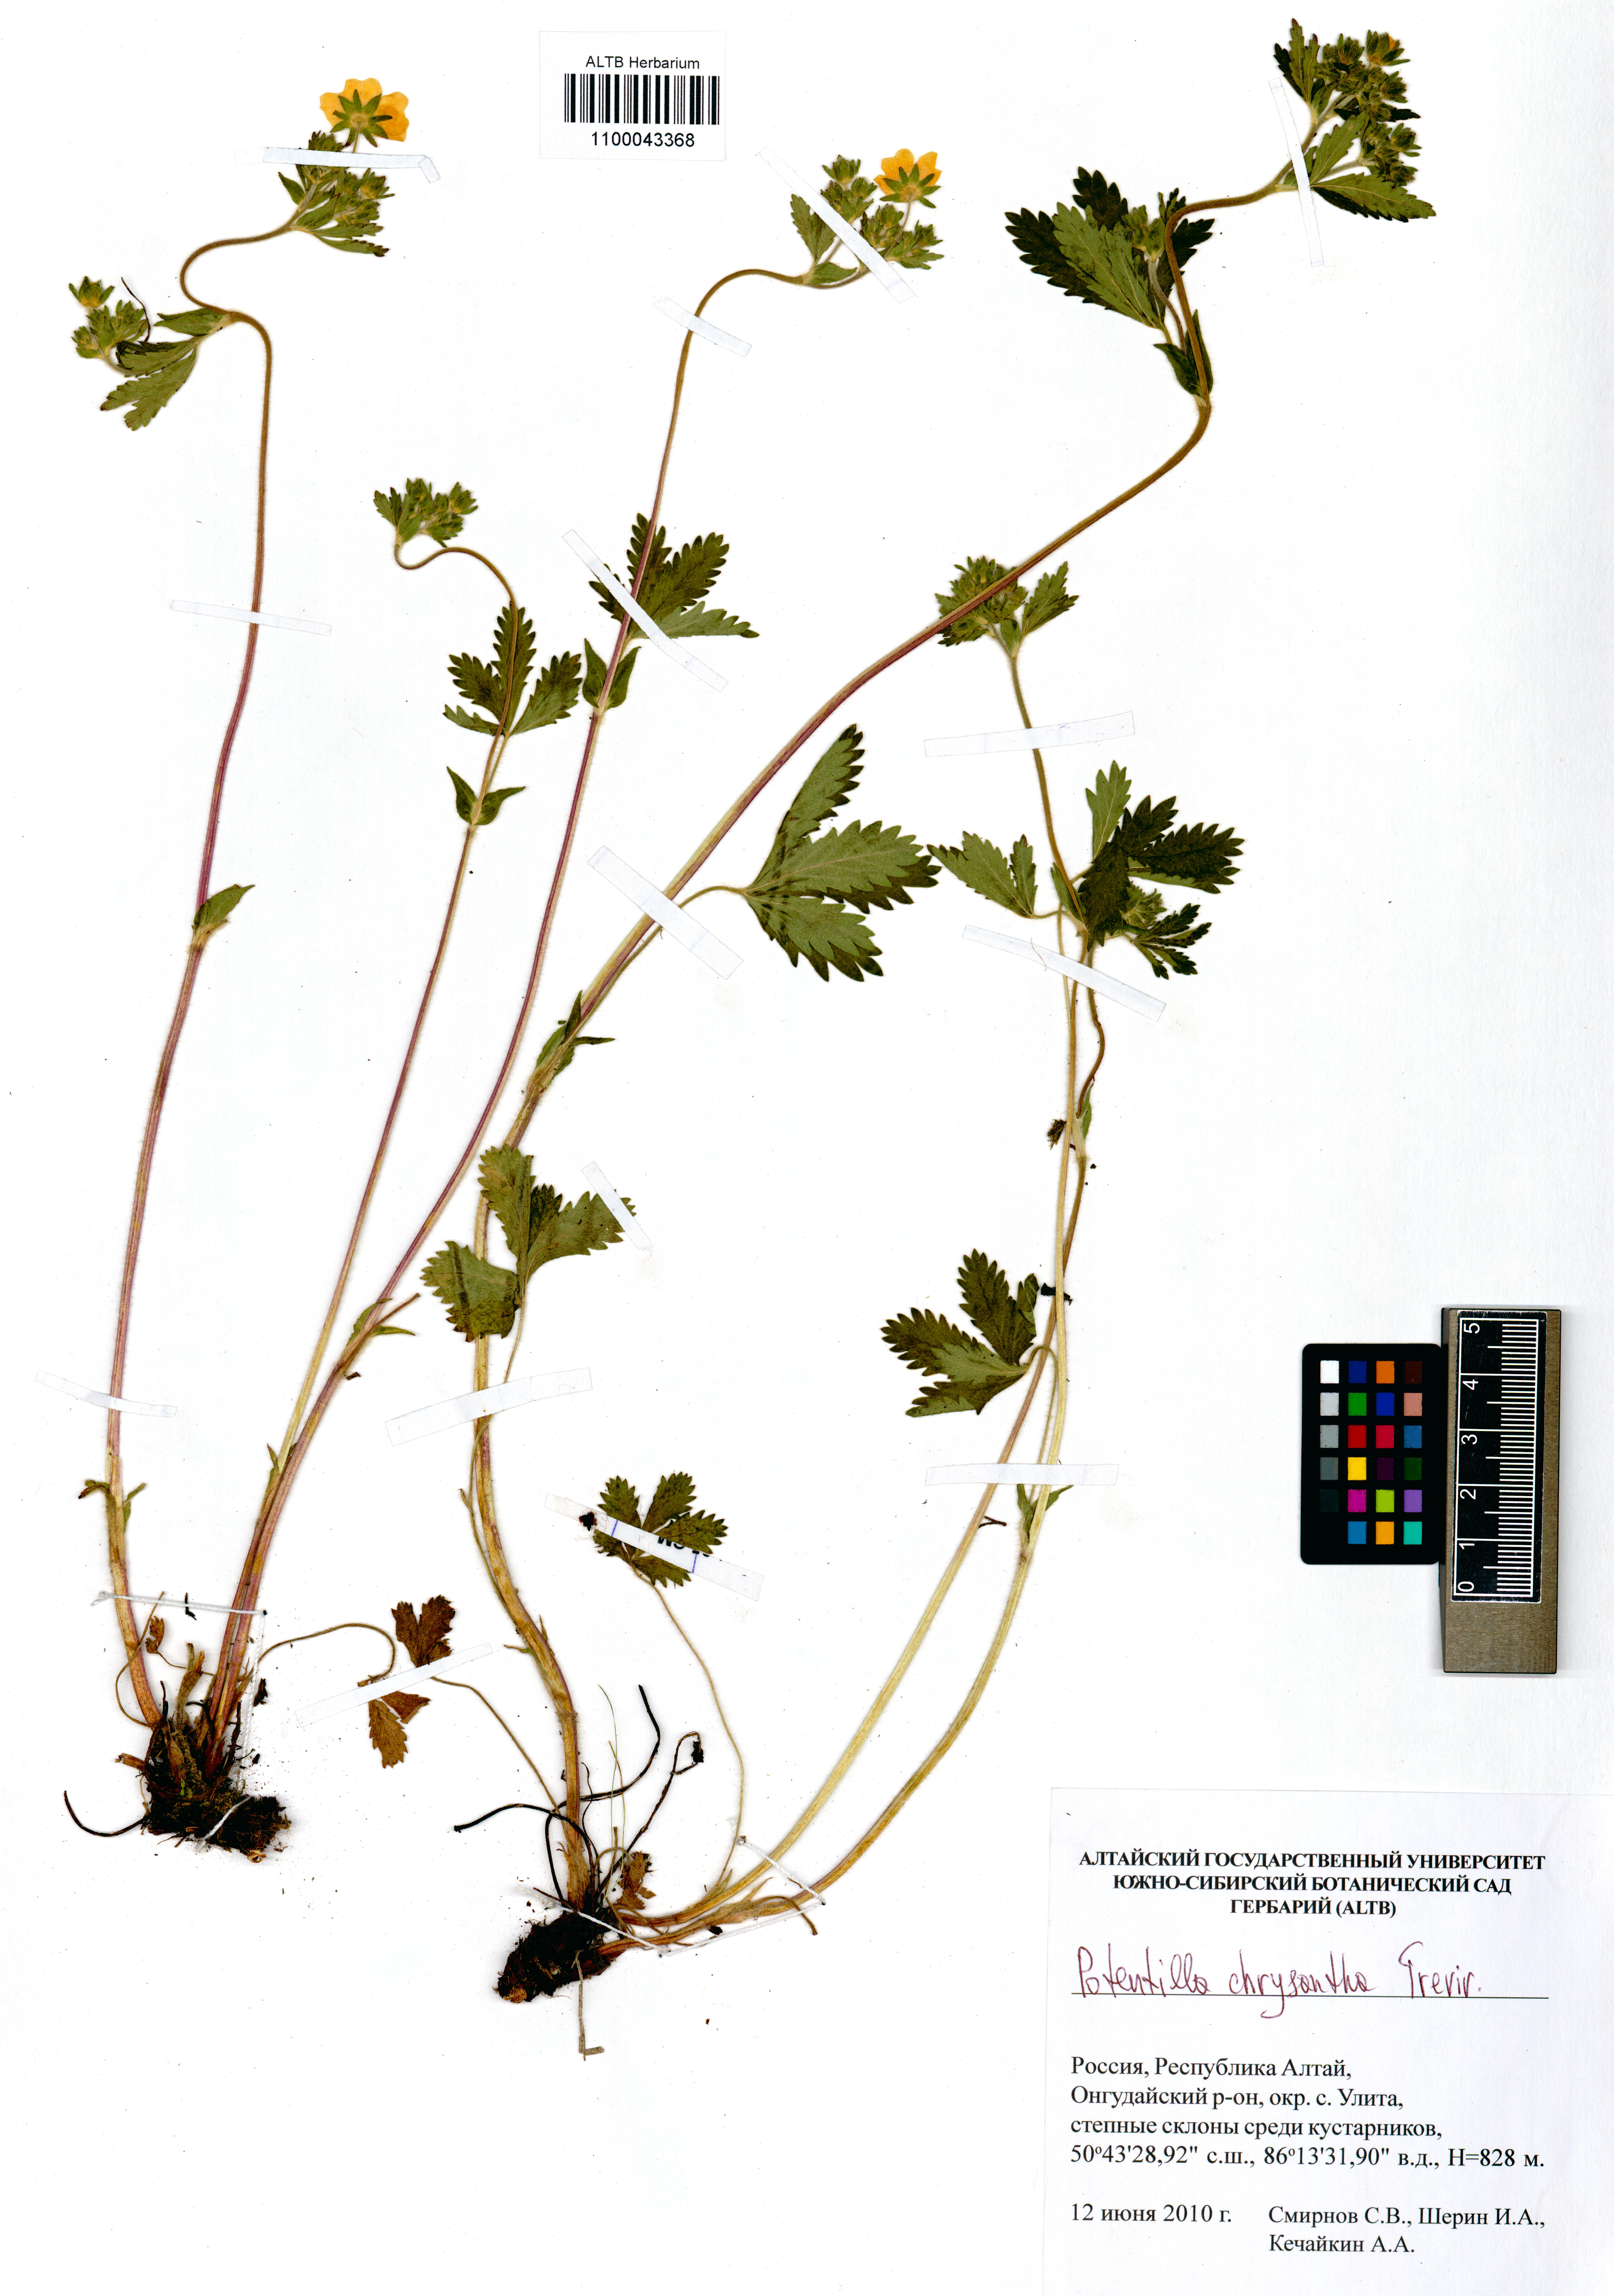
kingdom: Plantae
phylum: Tracheophyta
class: Magnoliopsida
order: Rosales
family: Rosaceae
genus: Potentilla
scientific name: Potentilla chrysantha
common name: Thuringian cinquefoil
